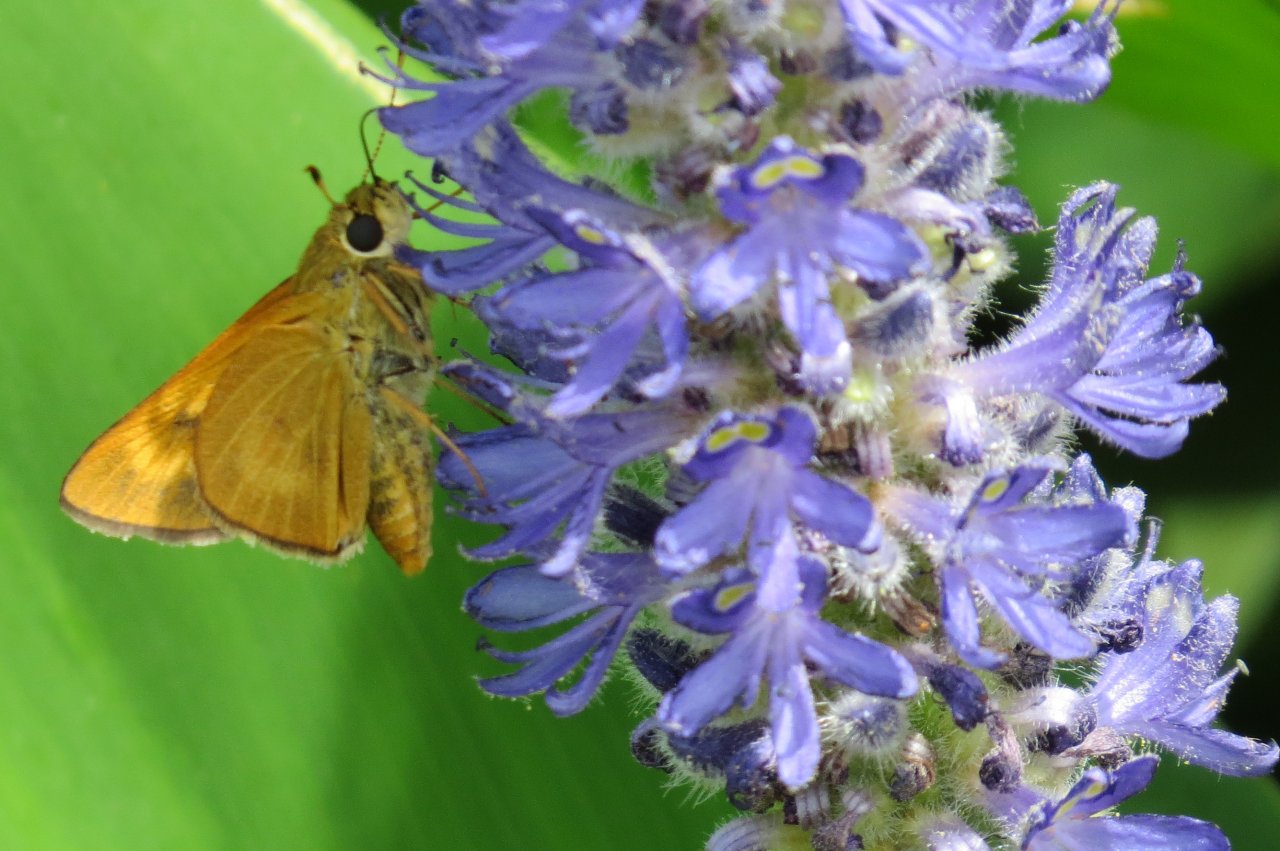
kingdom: Animalia
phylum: Arthropoda
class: Insecta
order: Lepidoptera
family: Hesperiidae
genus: Problema
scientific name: Problema byssus
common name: Byssus Skipper
